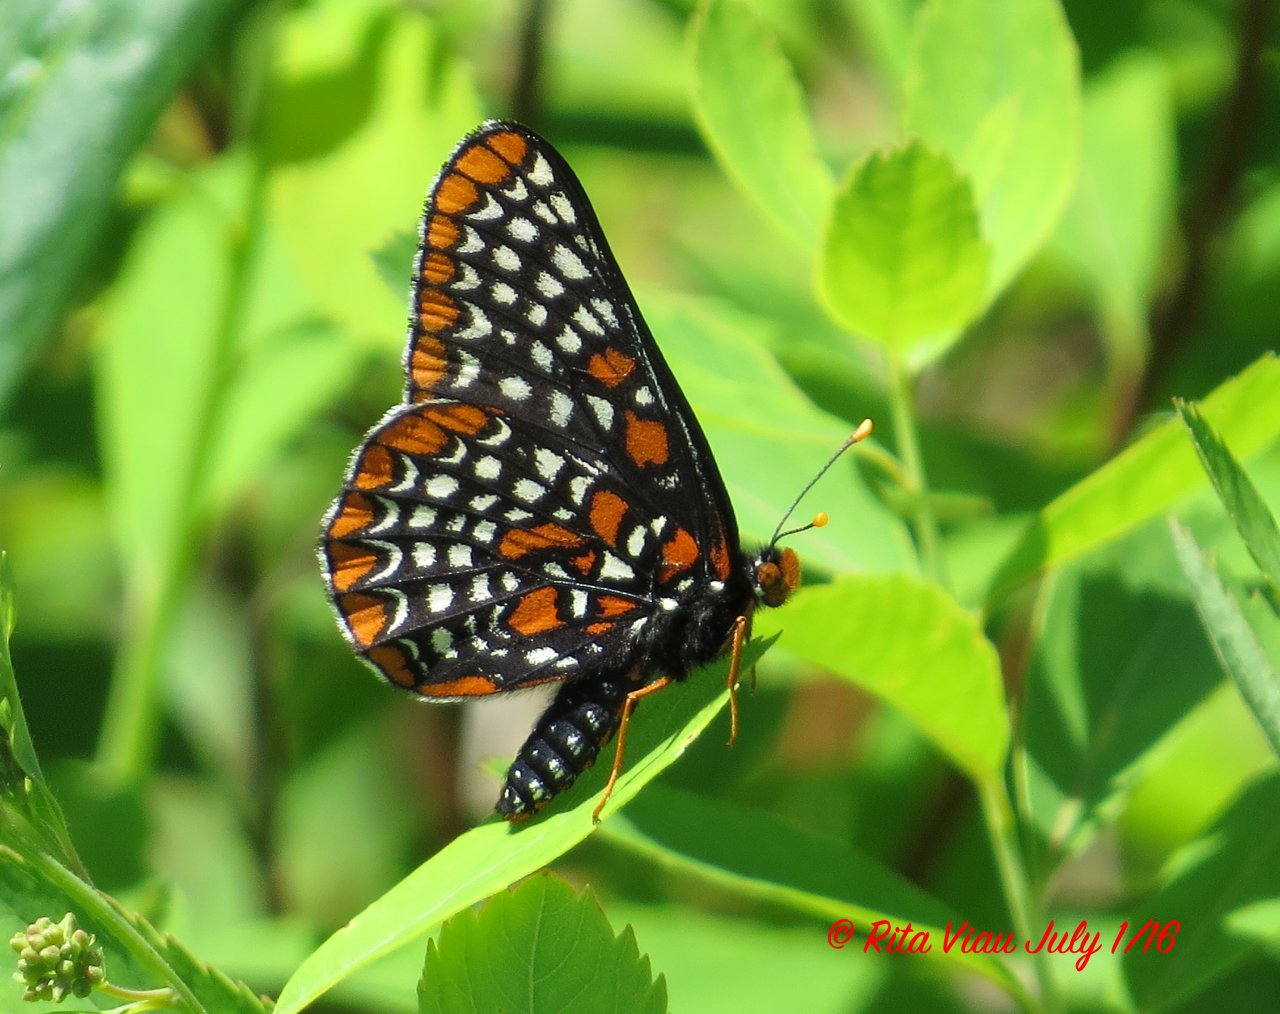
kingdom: Animalia
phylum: Arthropoda
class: Insecta
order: Lepidoptera
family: Nymphalidae
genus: Euphydryas
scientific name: Euphydryas phaeton
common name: Baltimore Checkerspot
